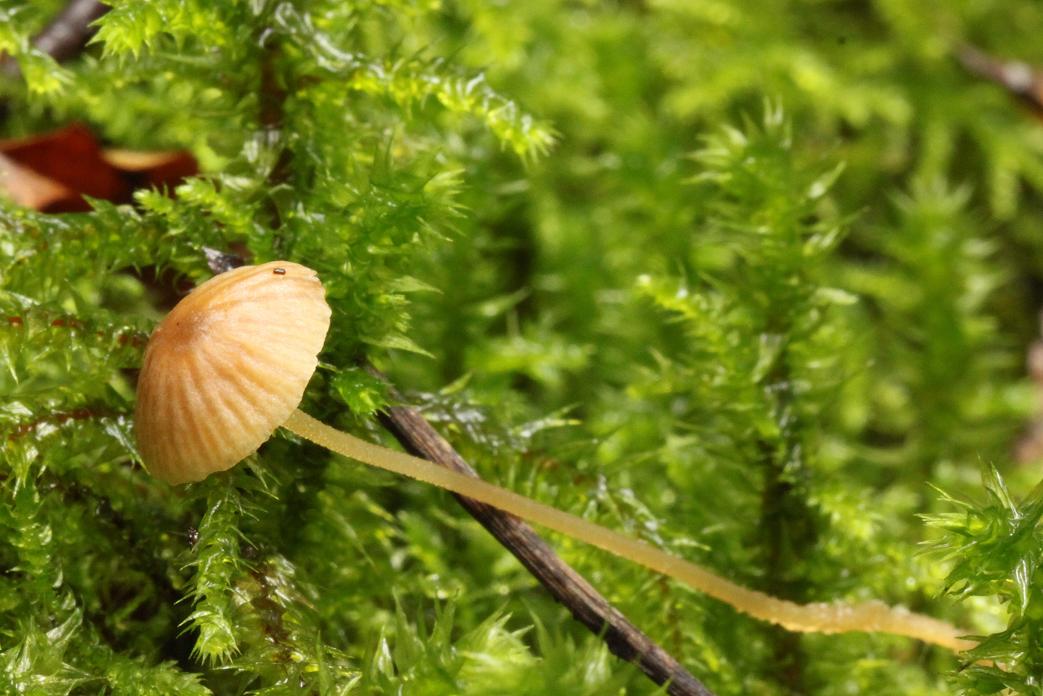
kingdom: Fungi
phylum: Basidiomycota
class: Agaricomycetes
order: Agaricales
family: Porotheleaceae
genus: Phloeomana
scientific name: Phloeomana clavata
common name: brunbladet huesvamp
